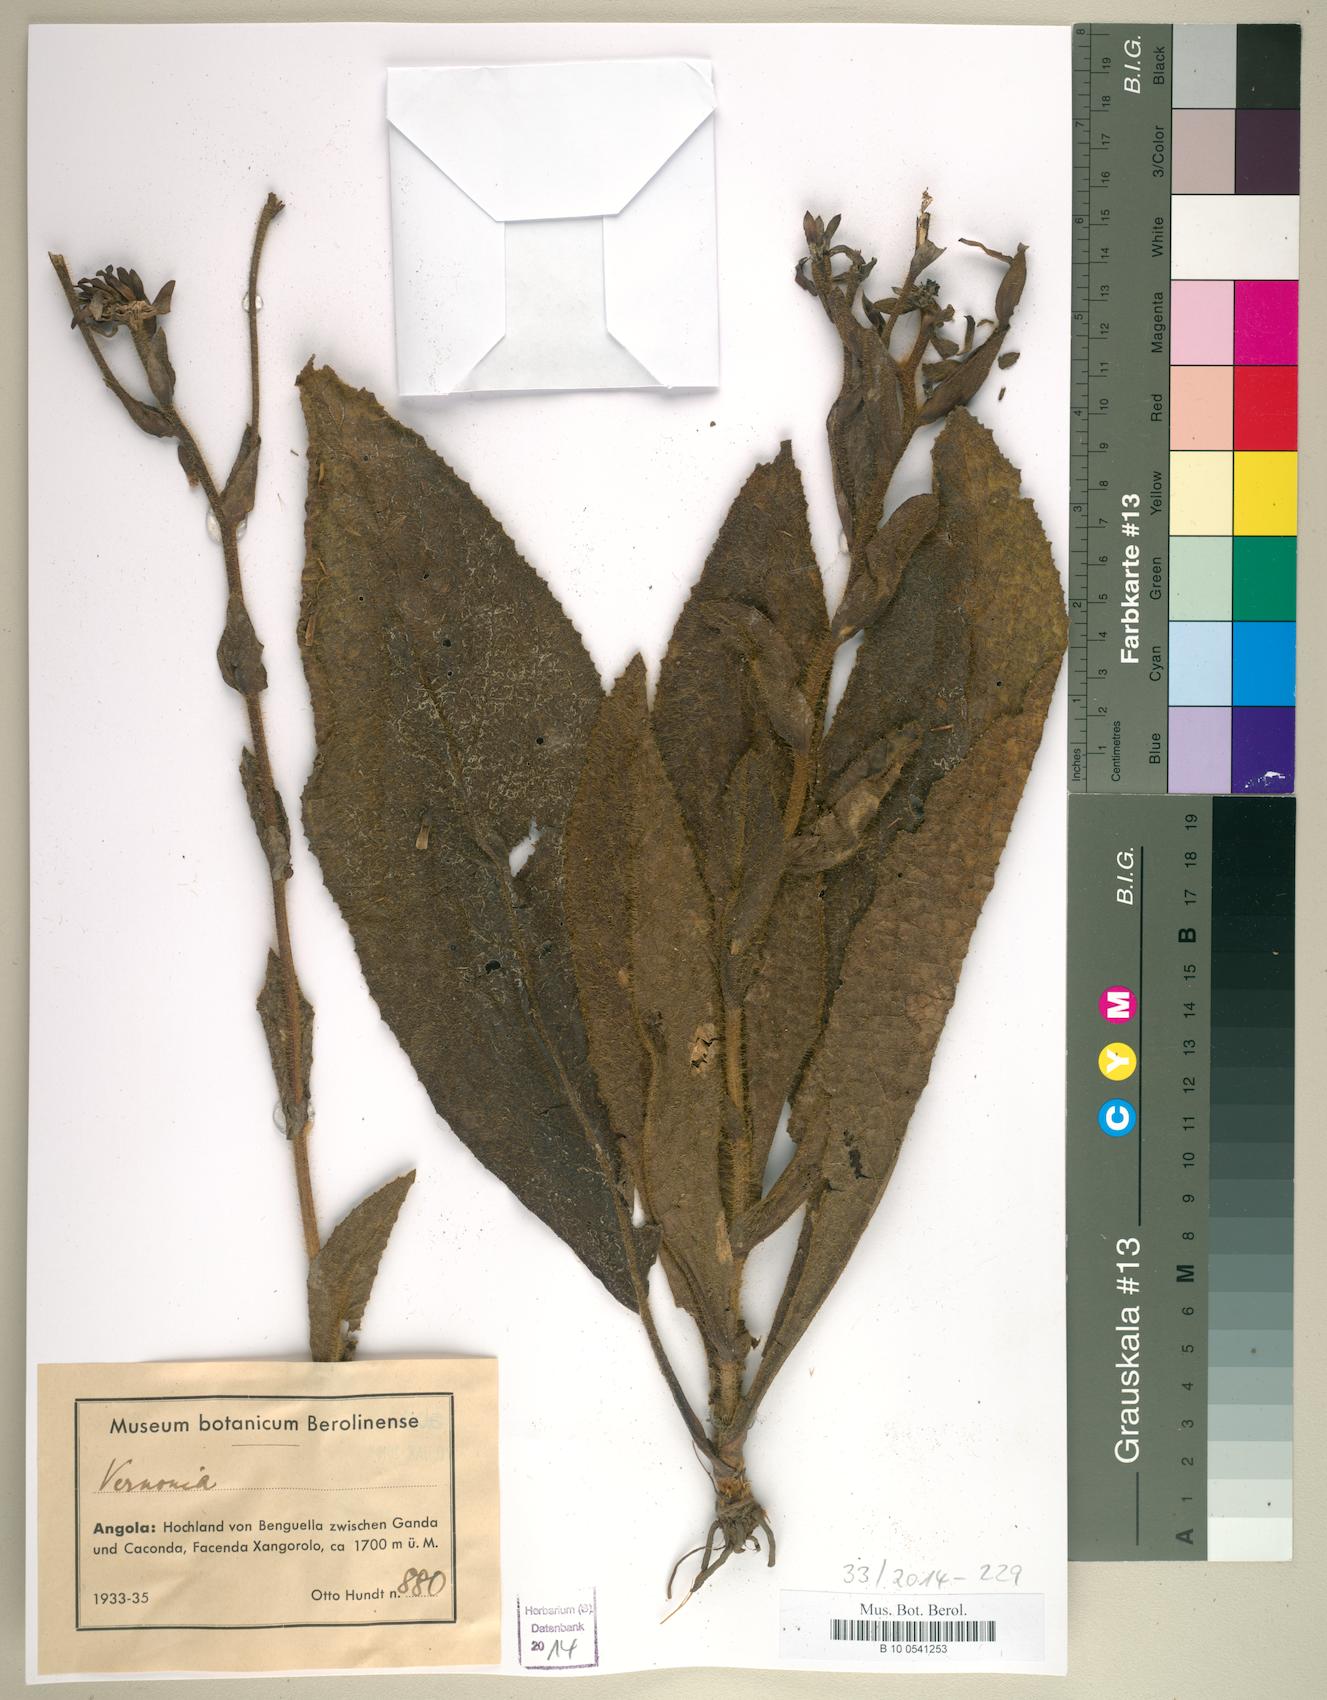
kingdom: Plantae
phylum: Tracheophyta
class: Magnoliopsida
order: Asterales
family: Asteraceae
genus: Vernonia
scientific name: Vernonia
